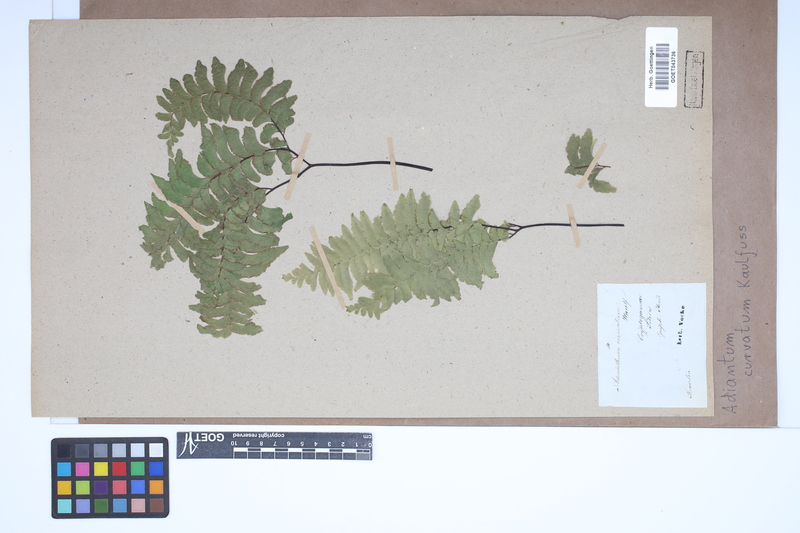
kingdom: Plantae
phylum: Tracheophyta
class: Polypodiopsida
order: Polypodiales
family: Pteridaceae
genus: Adiantum
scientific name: Adiantum curvatum
